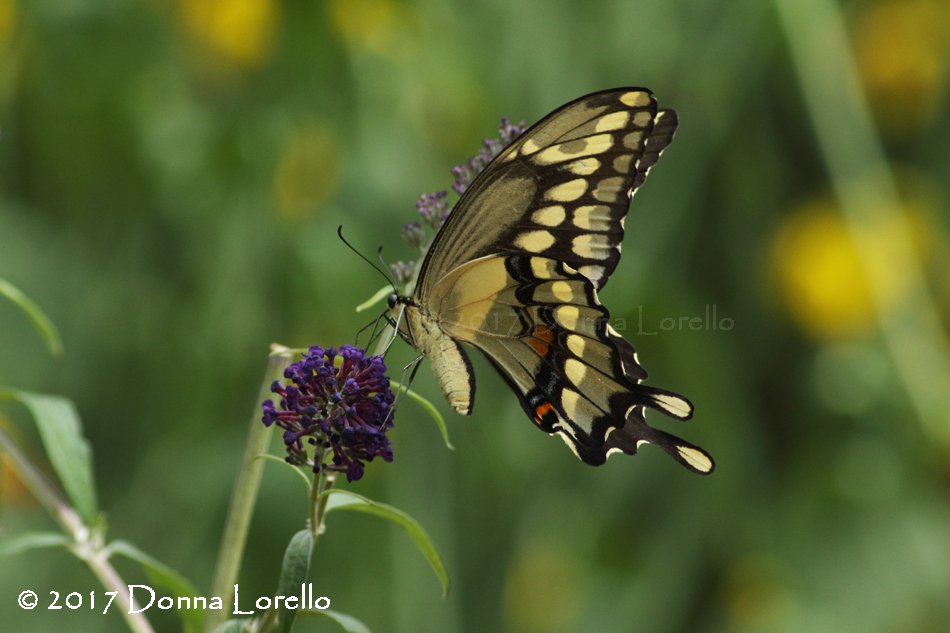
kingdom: Animalia
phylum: Arthropoda
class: Insecta
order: Lepidoptera
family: Papilionidae
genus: Papilio
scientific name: Papilio cresphontes
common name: Eastern Giant Swallowtail
